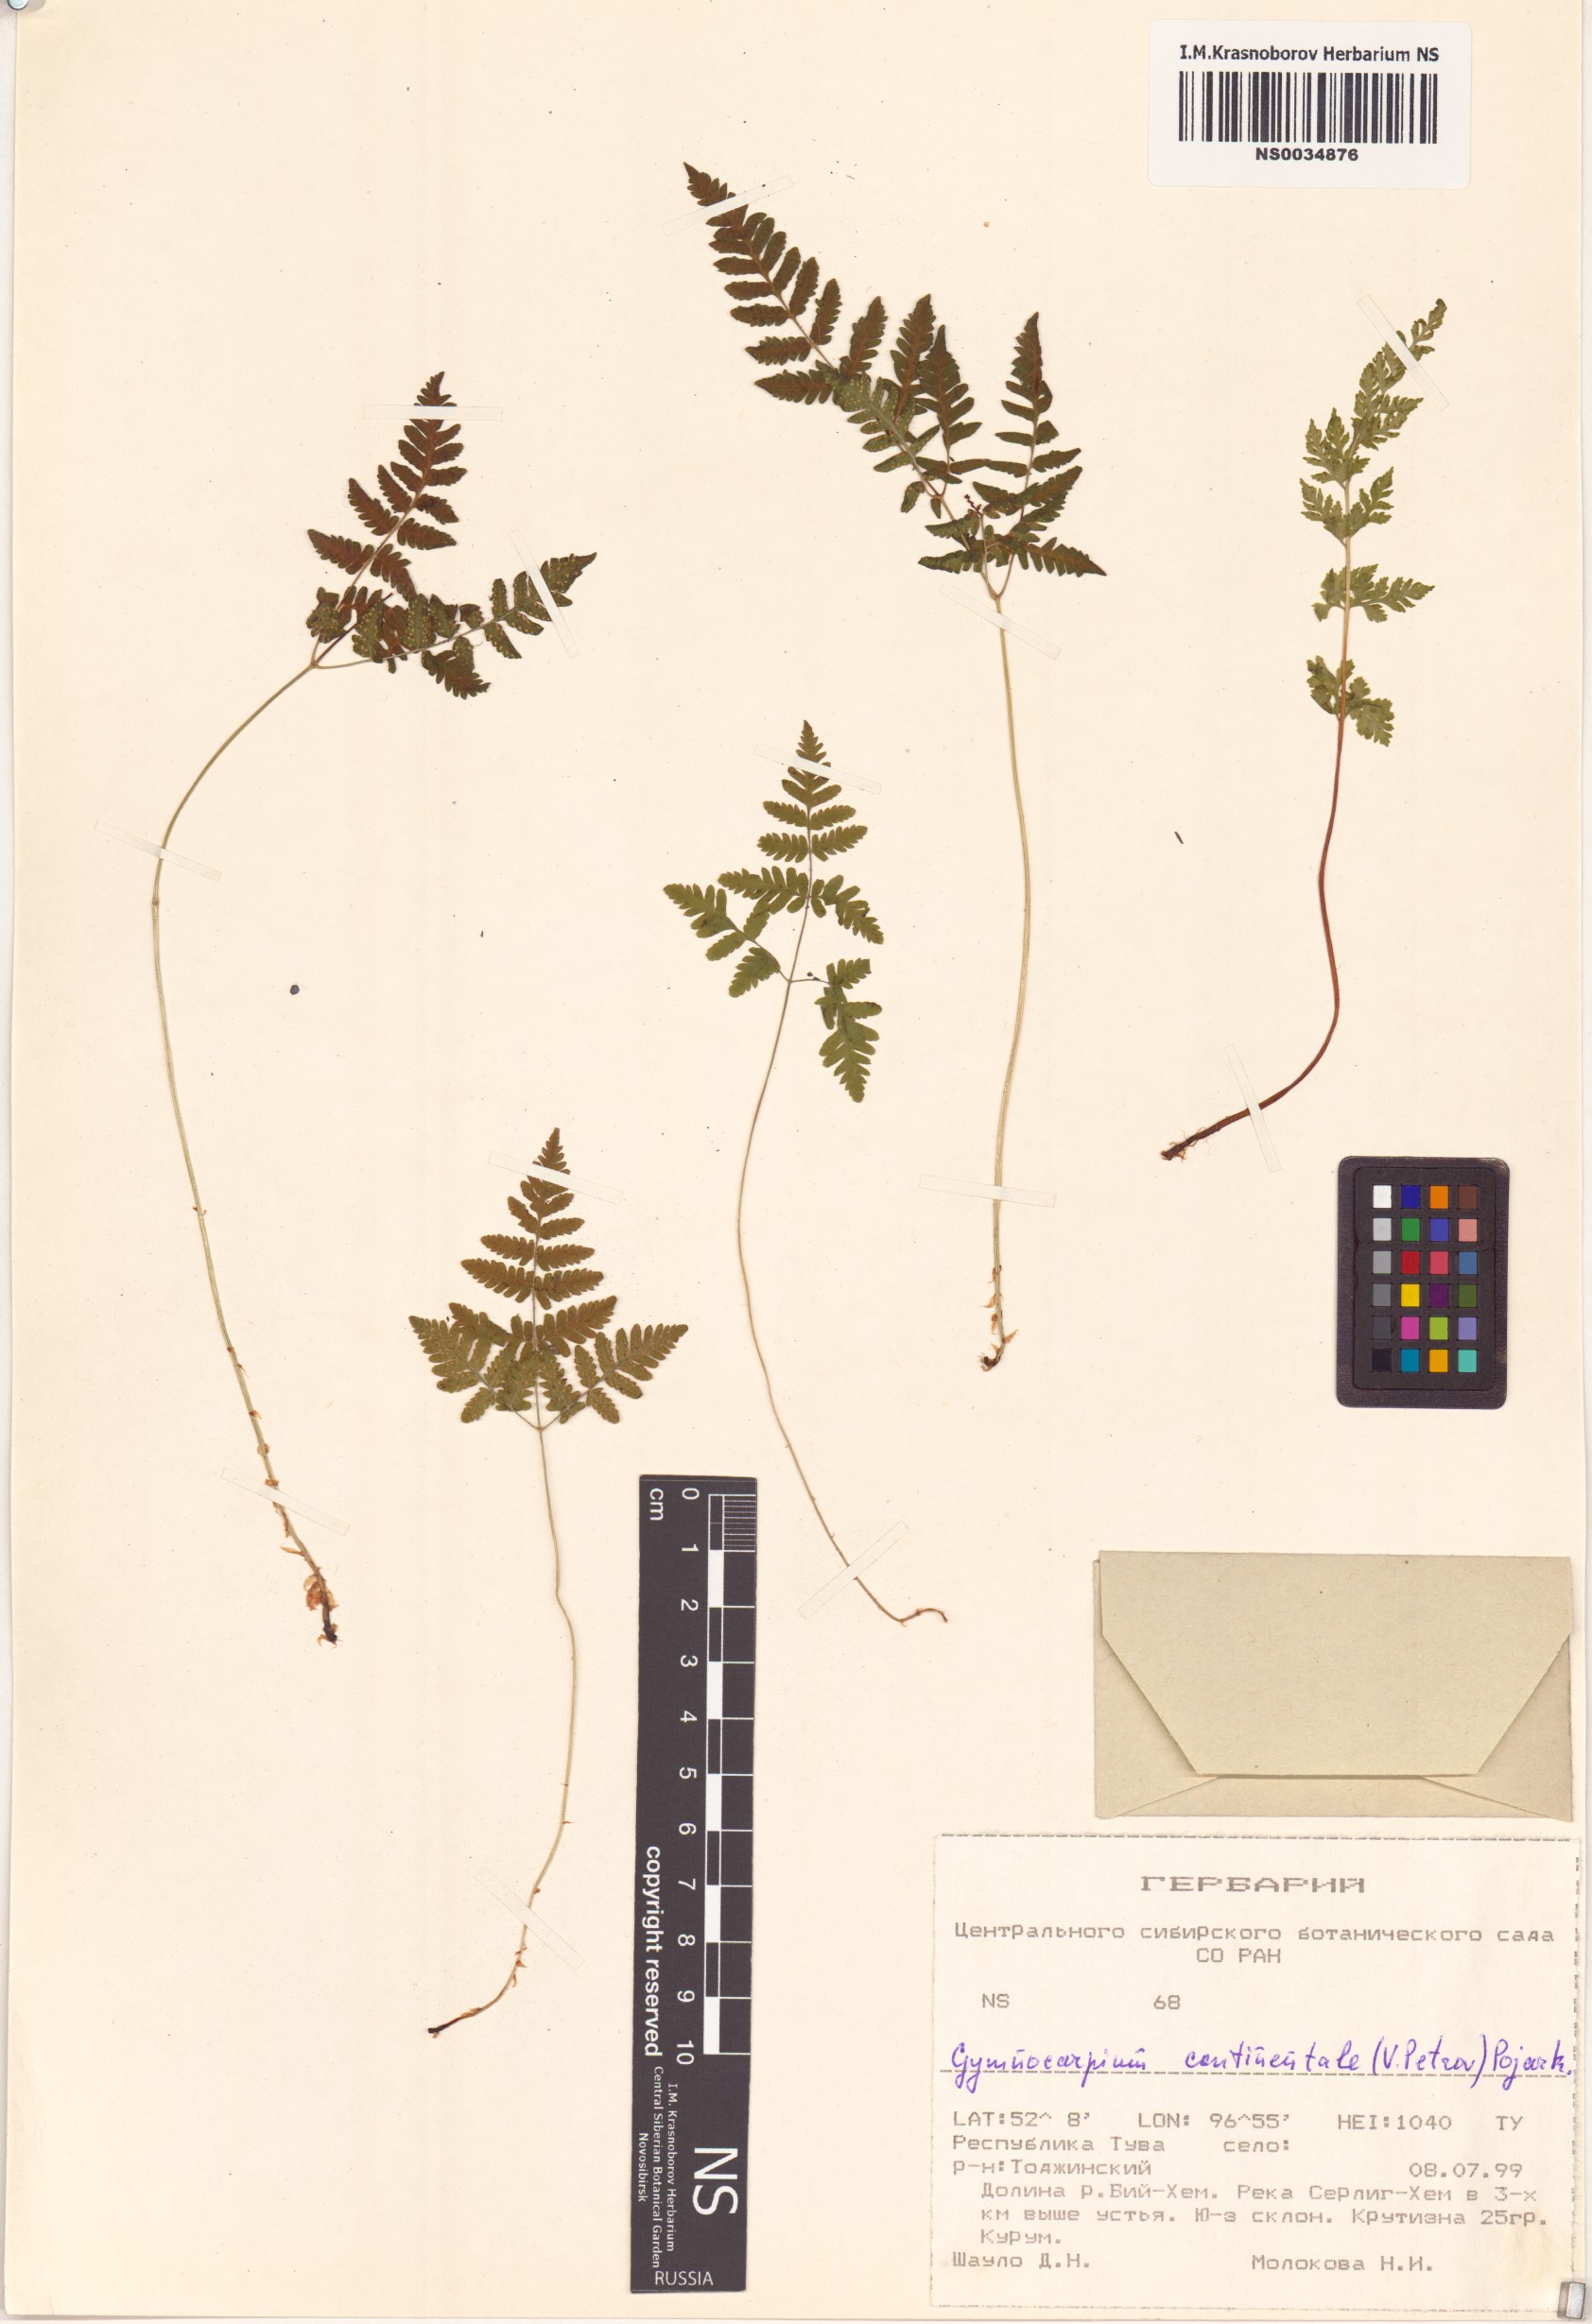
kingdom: Plantae
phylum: Tracheophyta
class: Polypodiopsida
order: Polypodiales
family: Cystopteridaceae
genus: Gymnocarpium
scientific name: Gymnocarpium continentale
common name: Asian oak fern
